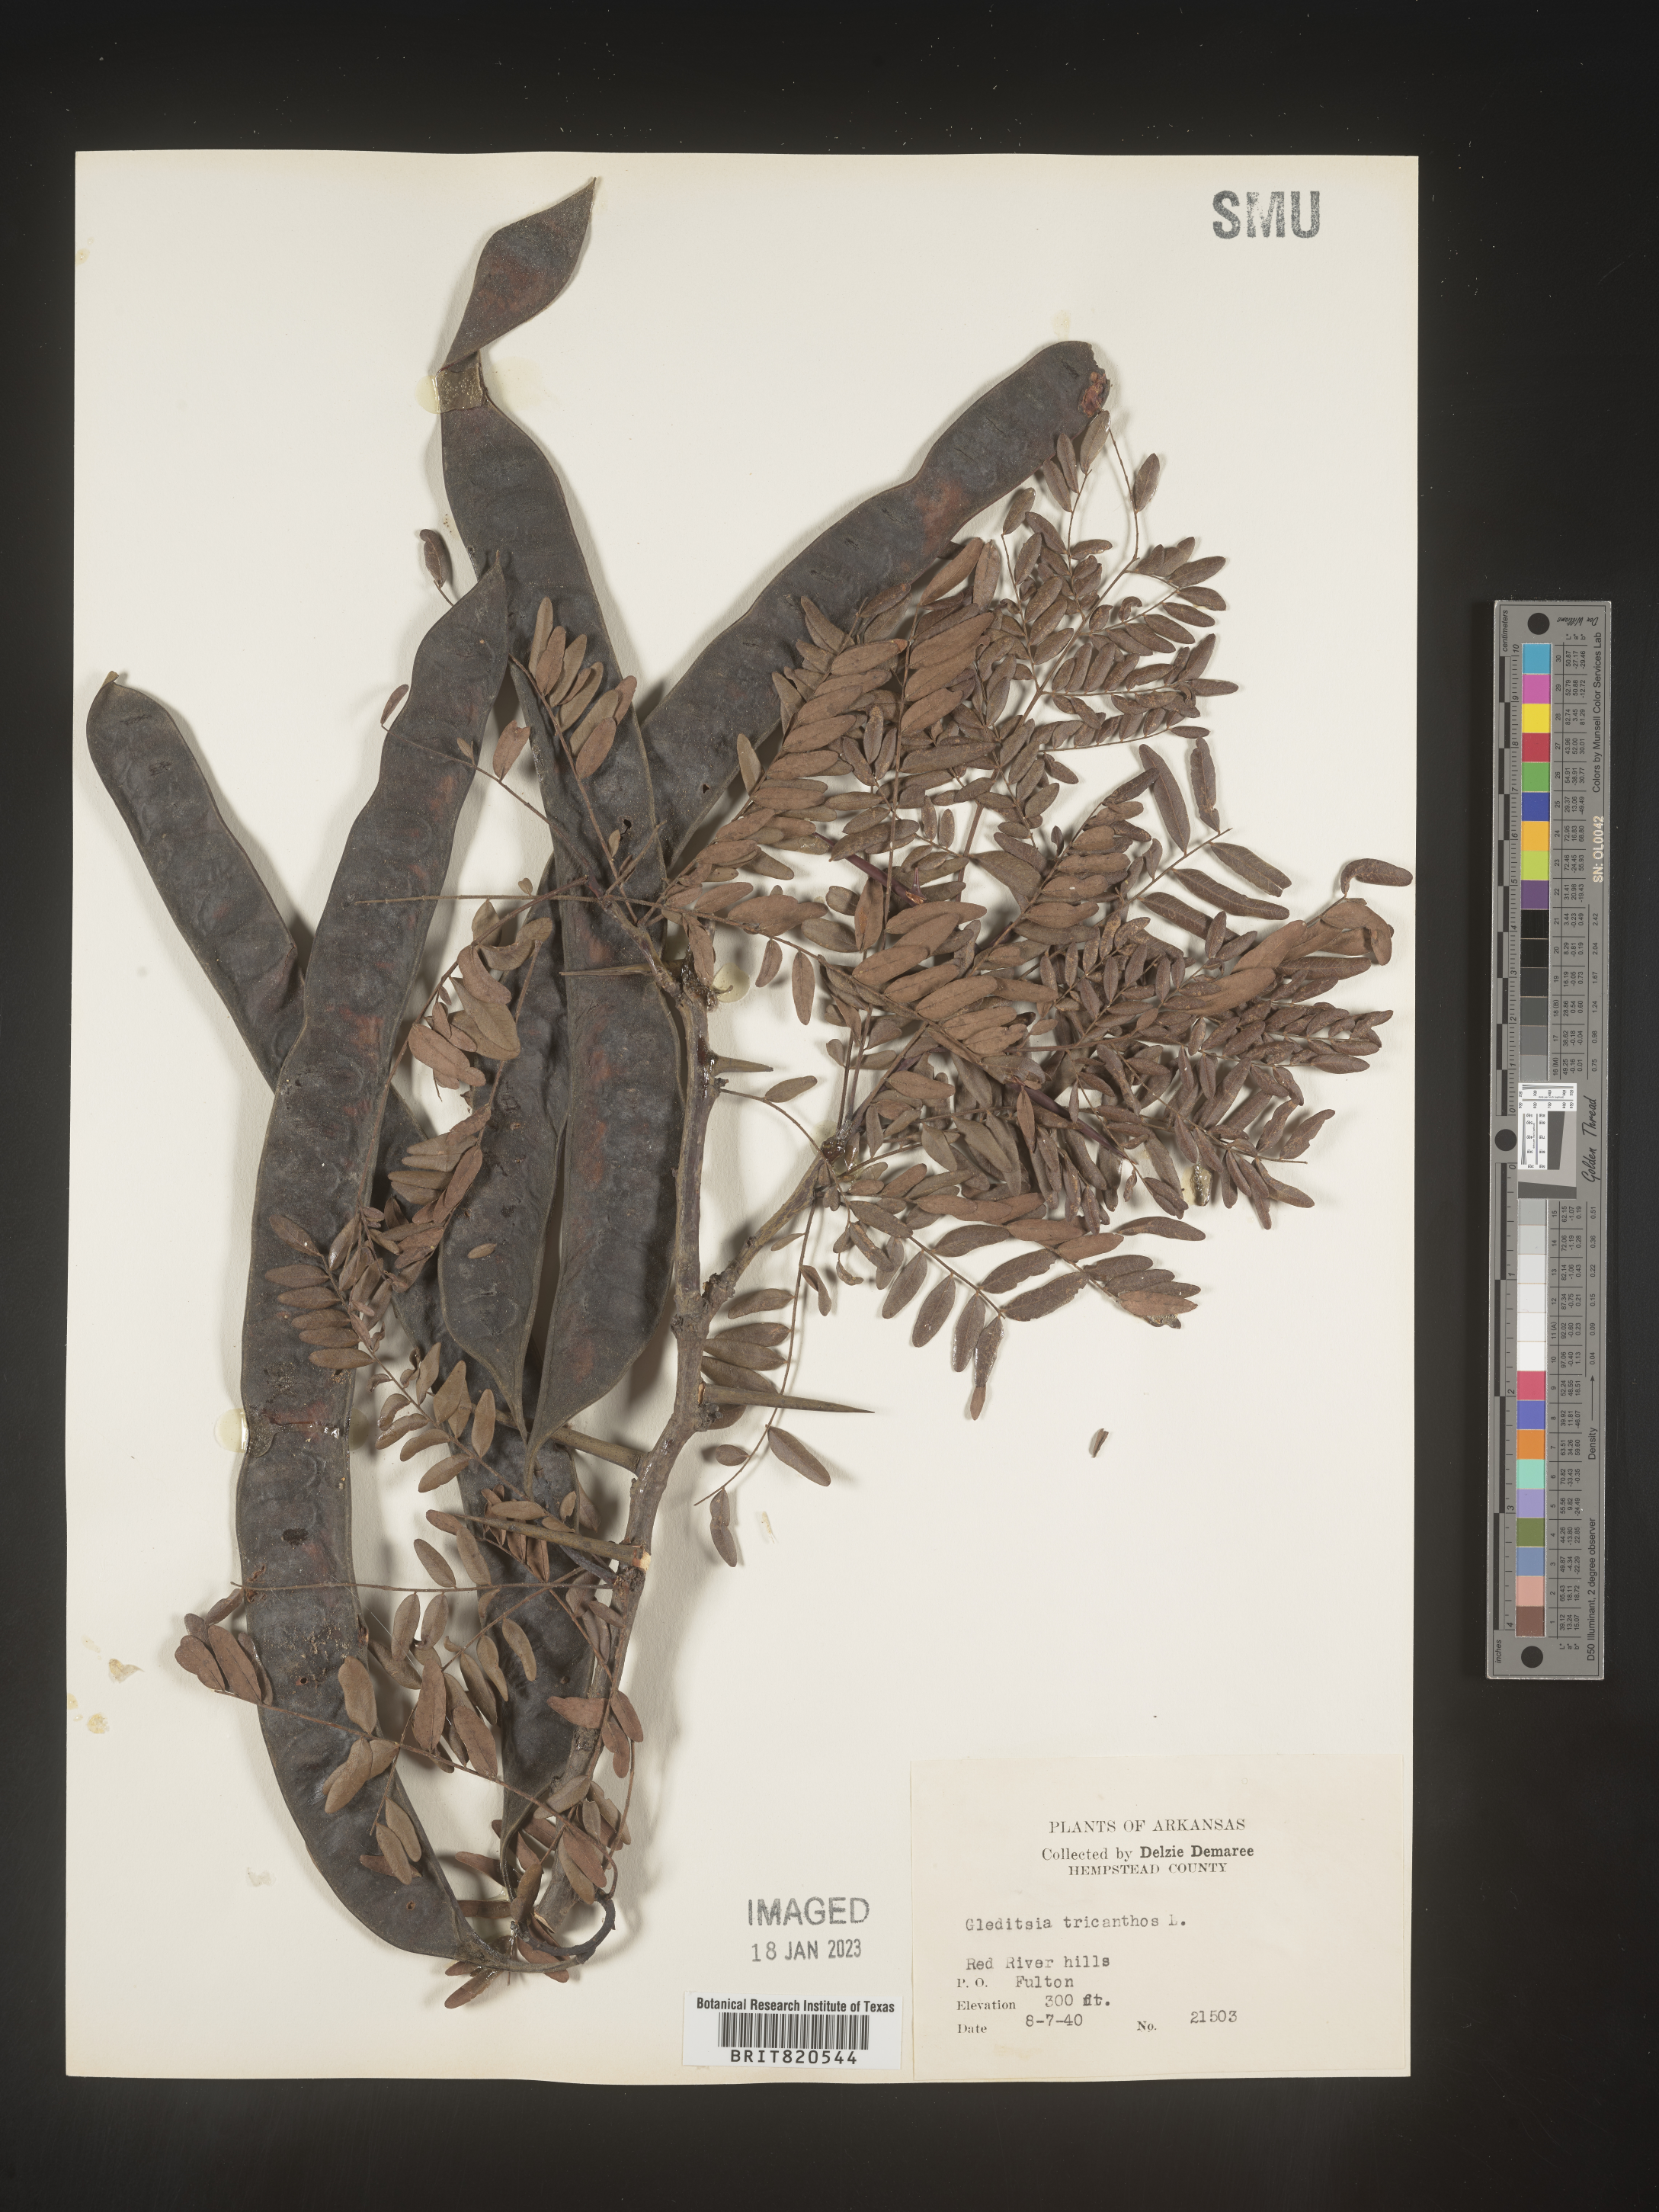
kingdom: Plantae
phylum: Tracheophyta
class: Magnoliopsida
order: Fabales
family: Fabaceae
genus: Gleditsia
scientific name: Gleditsia triacanthos
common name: Common honeylocust
